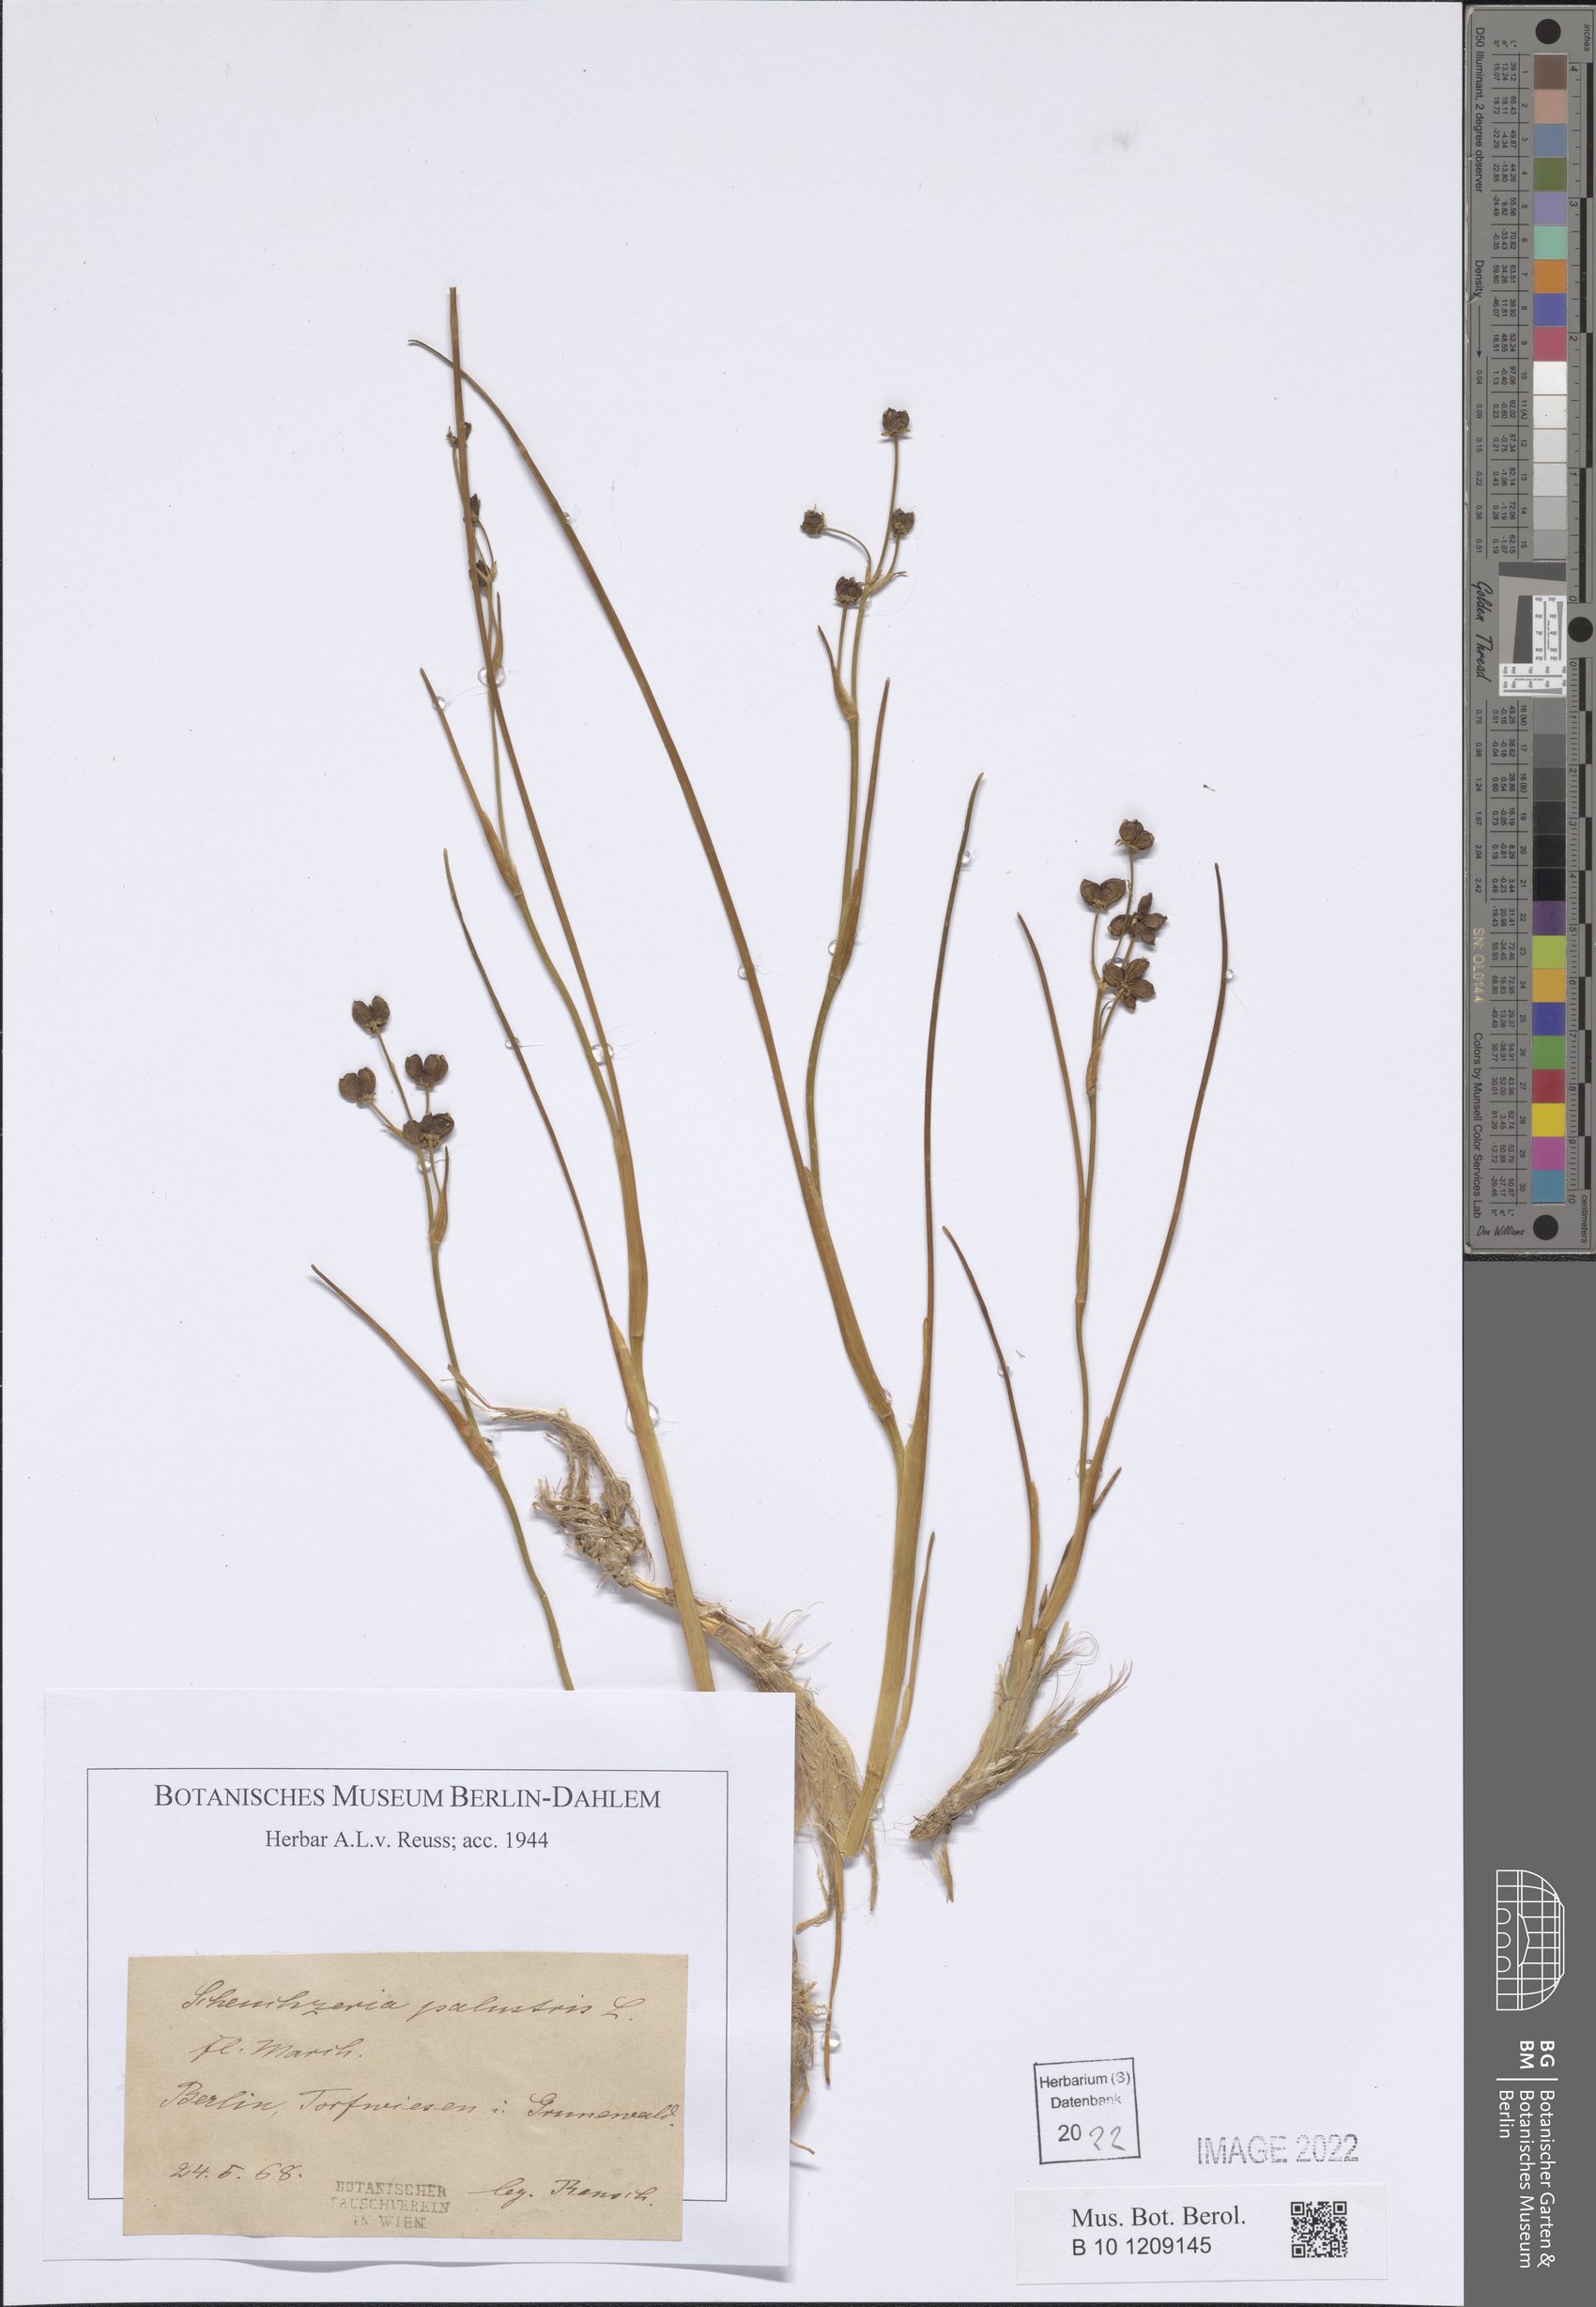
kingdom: Plantae
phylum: Tracheophyta
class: Liliopsida
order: Alismatales
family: Scheuchzeriaceae
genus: Scheuchzeria
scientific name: Scheuchzeria palustris
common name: Rannoch-rush
